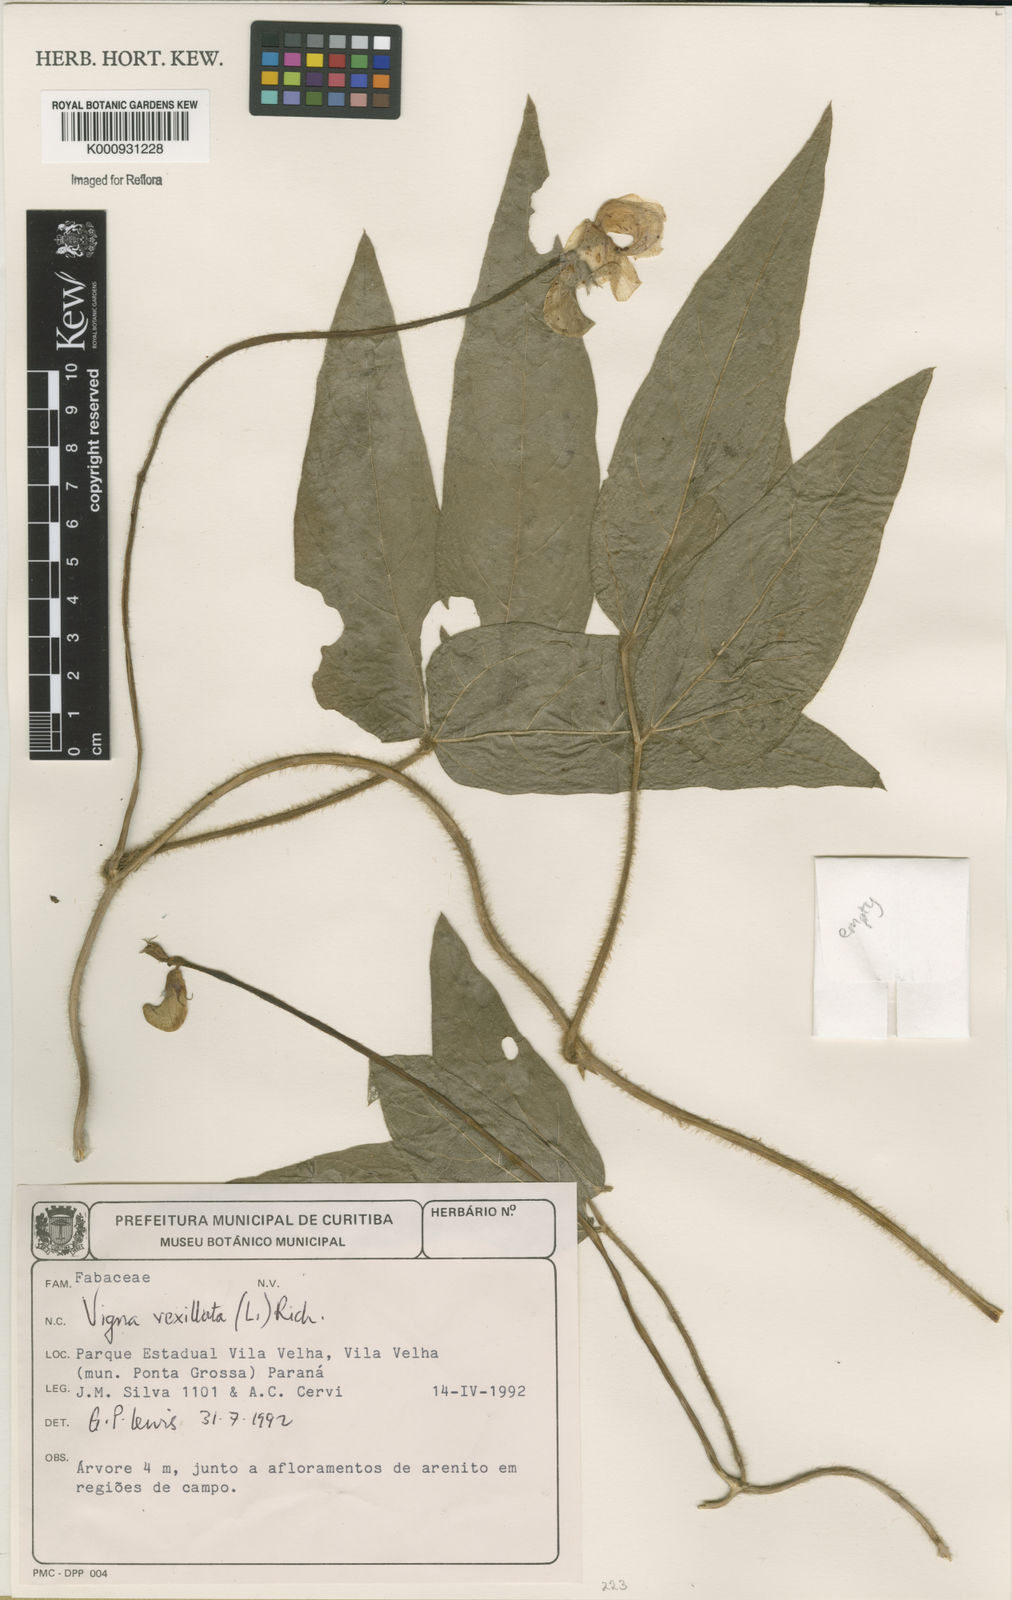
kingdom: Plantae
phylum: Tracheophyta
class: Magnoliopsida
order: Fabales
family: Fabaceae
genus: Vigna
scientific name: Vigna vexillata
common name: Zombi pea
